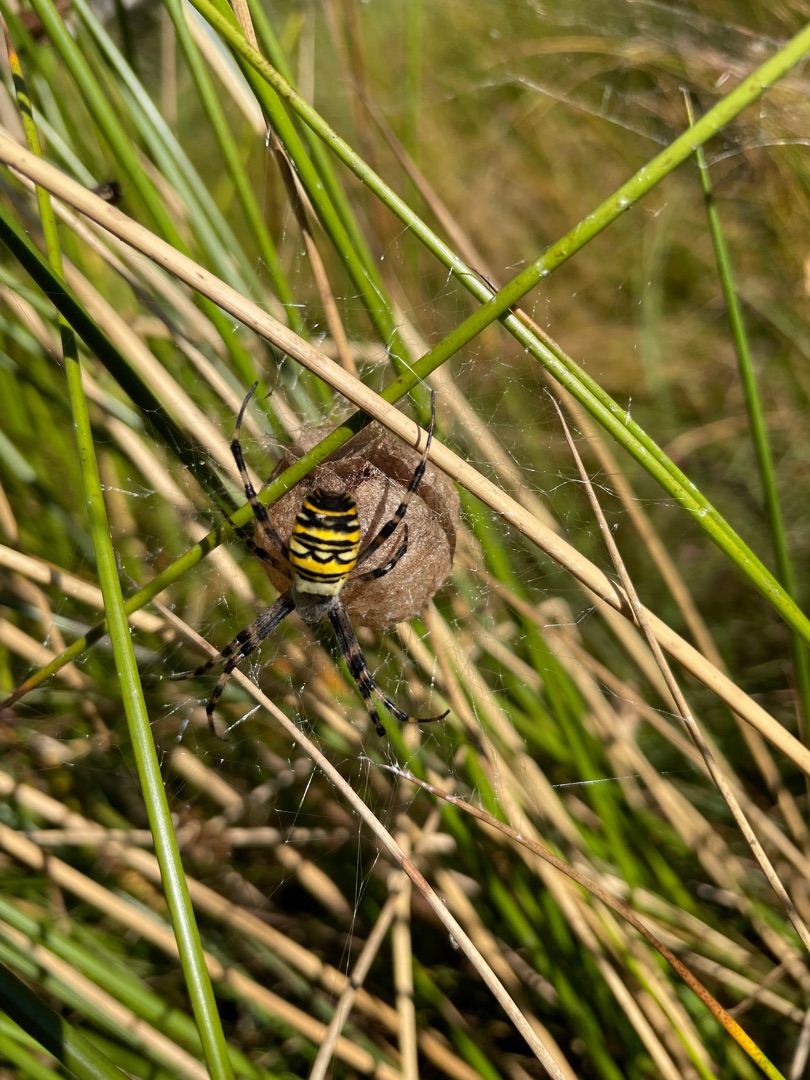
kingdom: Animalia
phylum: Arthropoda
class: Arachnida
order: Araneae
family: Araneidae
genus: Argiope
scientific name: Argiope bruennichi
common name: Hvepseedderkop
